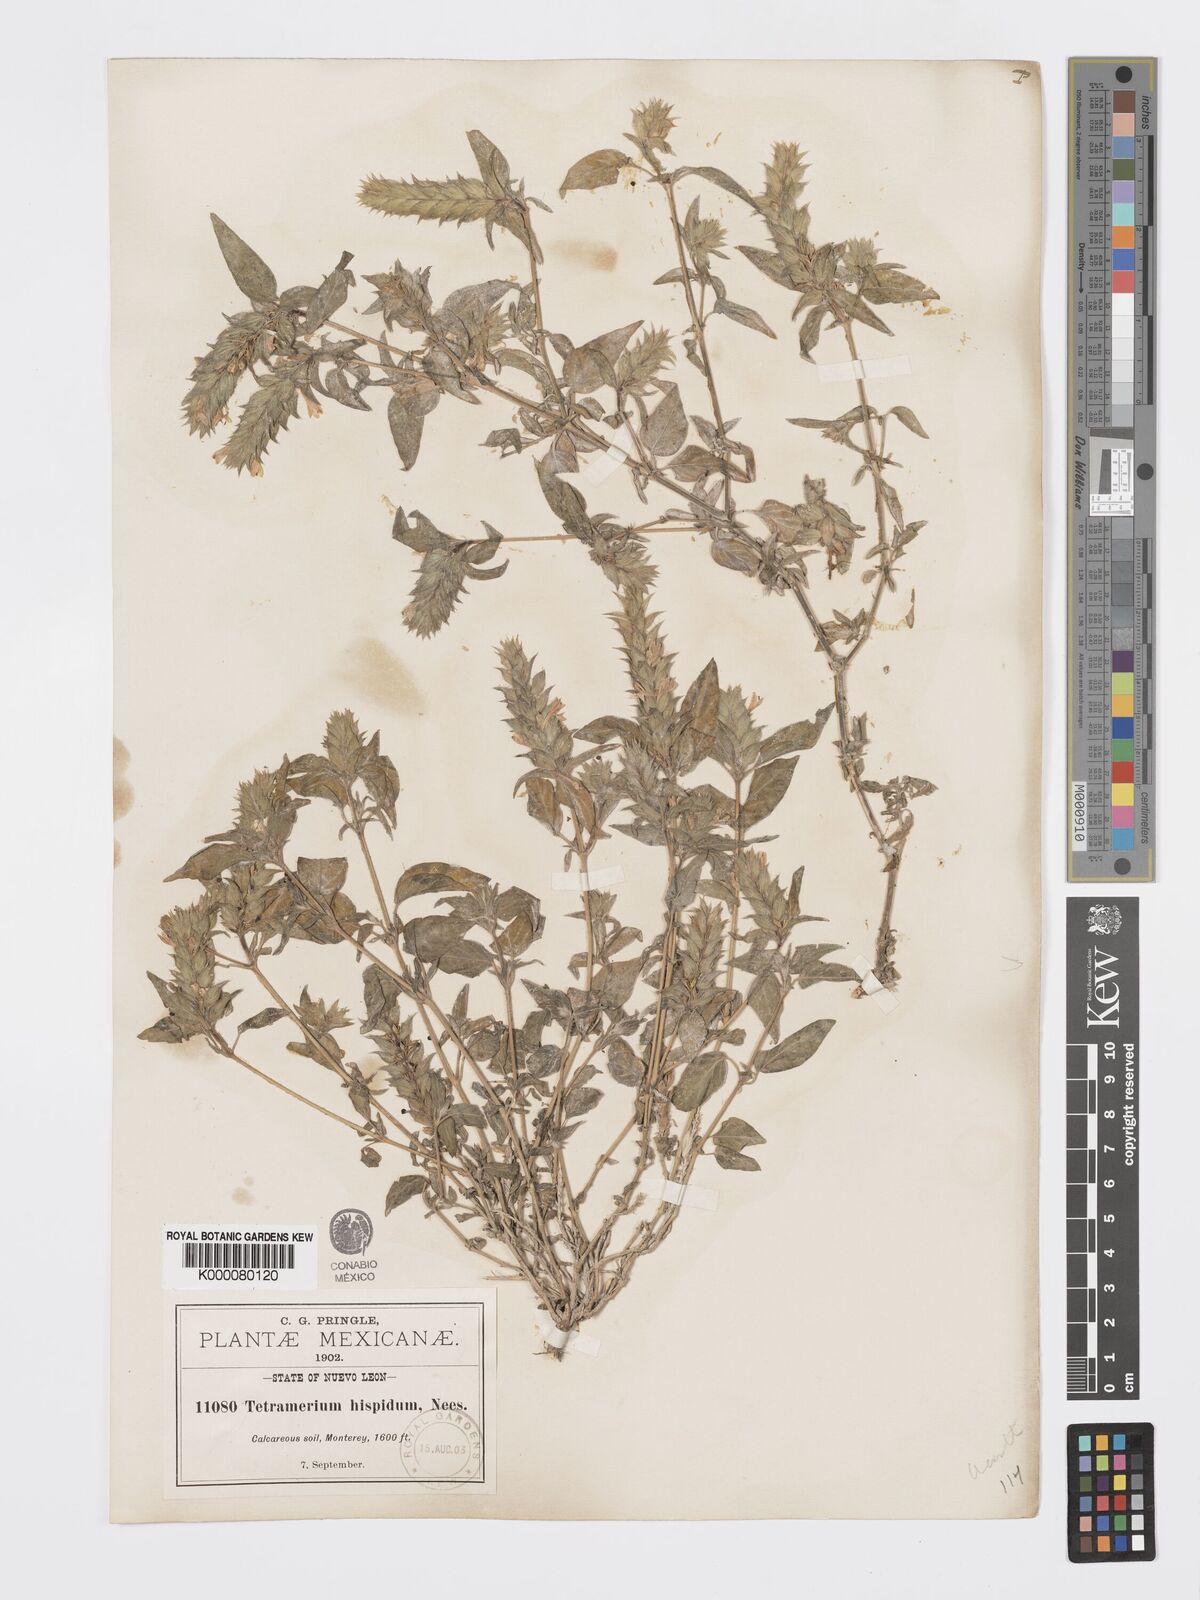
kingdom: Plantae
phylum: Tracheophyta
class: Magnoliopsida
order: Lamiales
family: Acanthaceae
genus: Tetramerium
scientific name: Tetramerium nervosum
